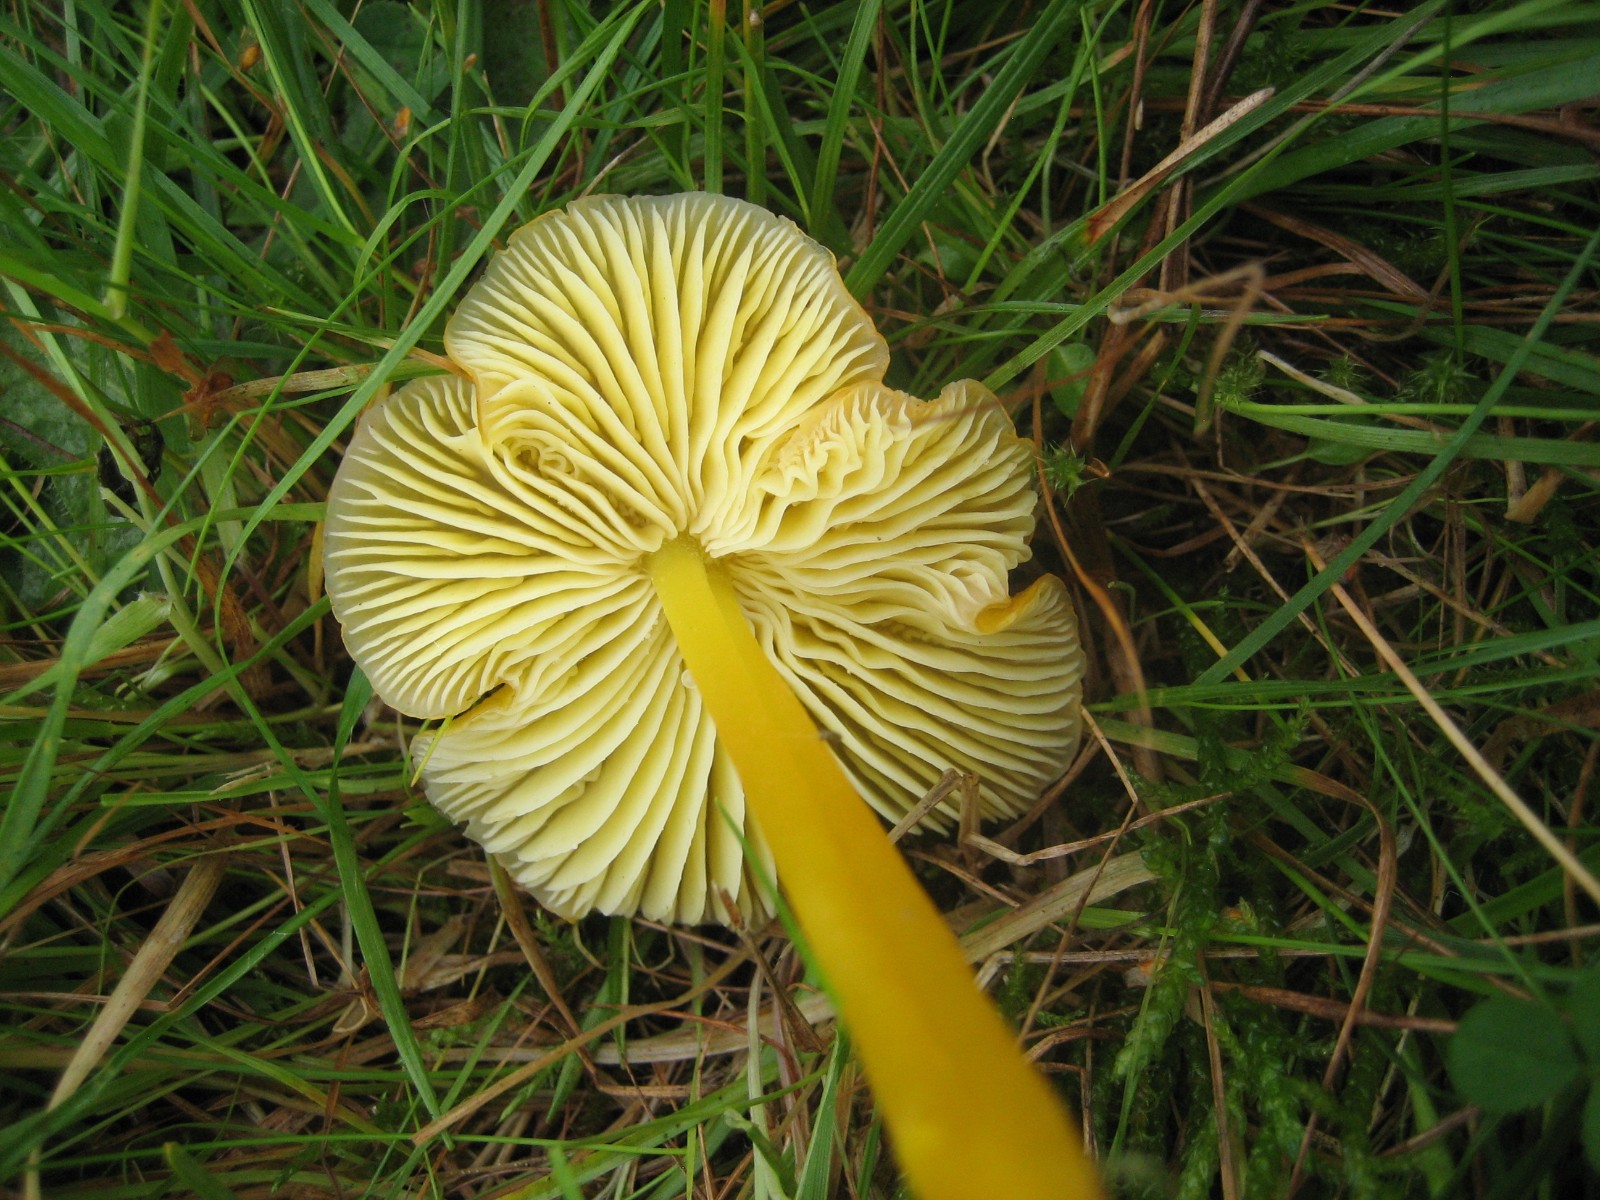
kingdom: Fungi
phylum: Basidiomycota
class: Agaricomycetes
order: Agaricales
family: Hygrophoraceae
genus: Hygrocybe
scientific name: Hygrocybe chlorophana
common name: gul vokshat
